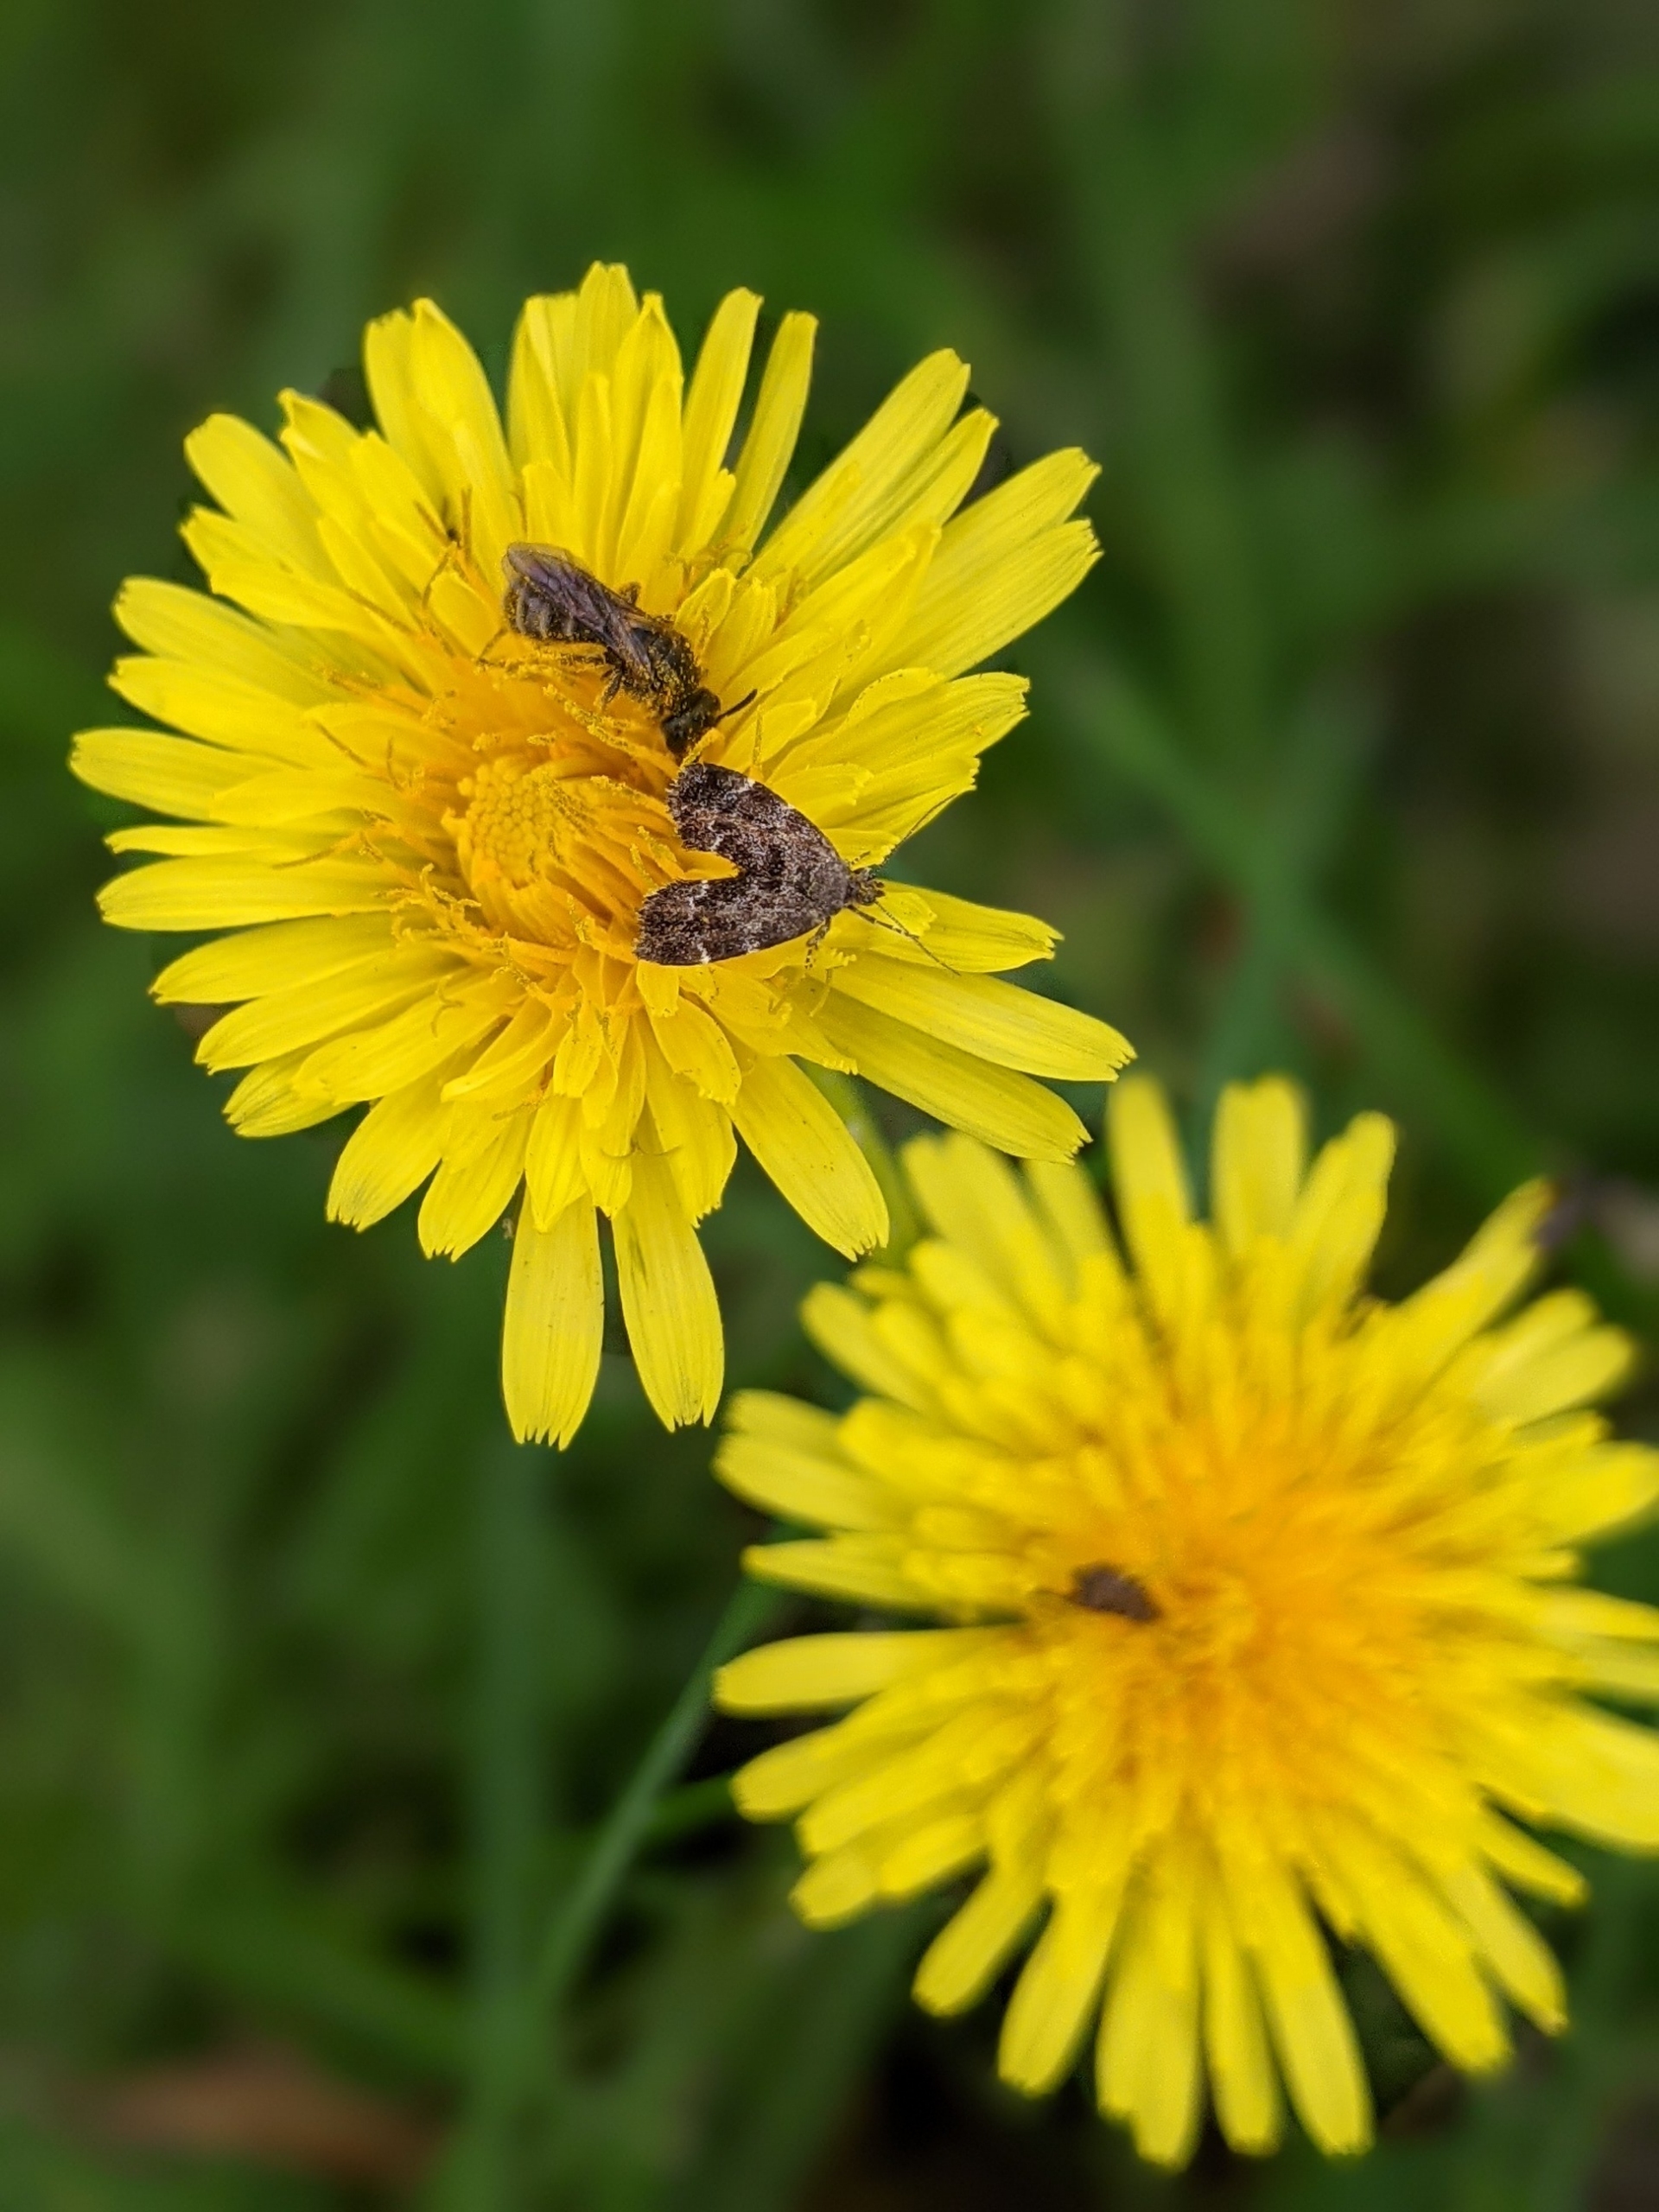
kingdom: Animalia
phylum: Arthropoda
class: Insecta
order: Lepidoptera
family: Choreutidae
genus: Anthophila
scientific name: Anthophila fabriciana
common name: Bredvinget nældevikler
